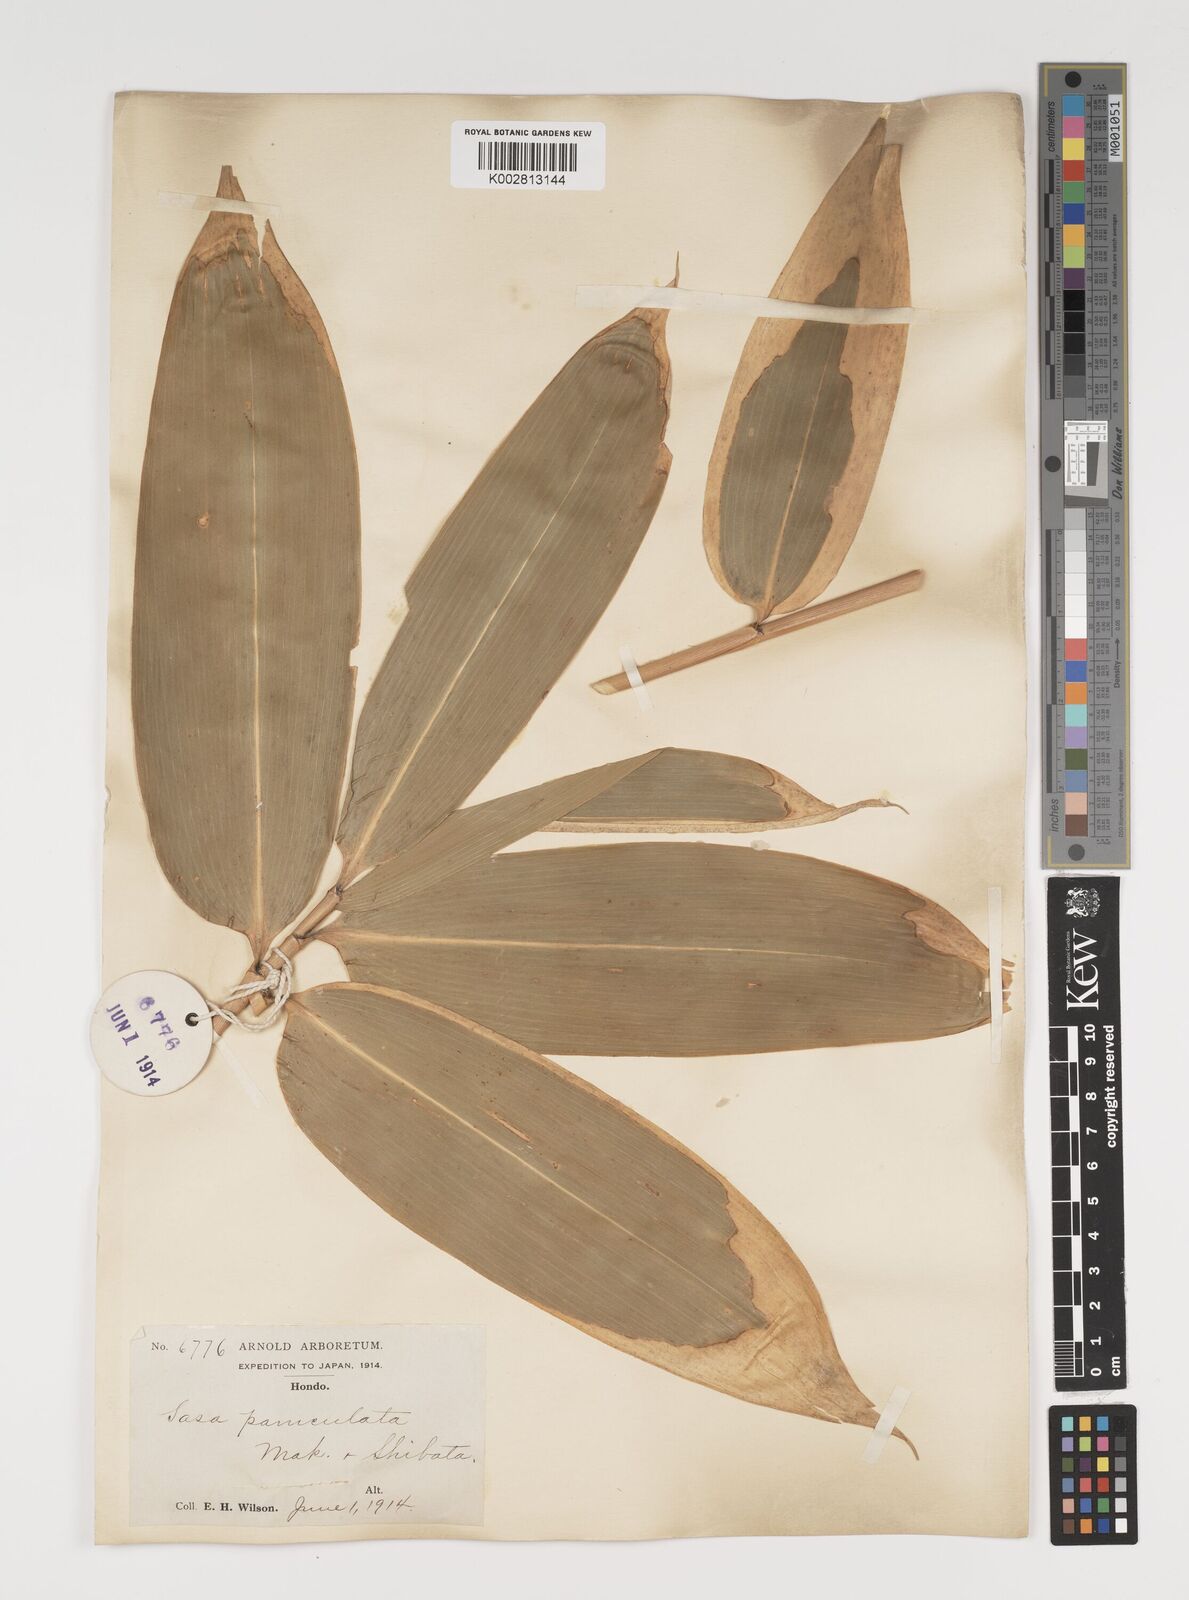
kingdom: Plantae
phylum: Tracheophyta
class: Liliopsida
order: Poales
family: Poaceae
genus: Sasa
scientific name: Sasa palmata
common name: Broad-leaved bamboo
